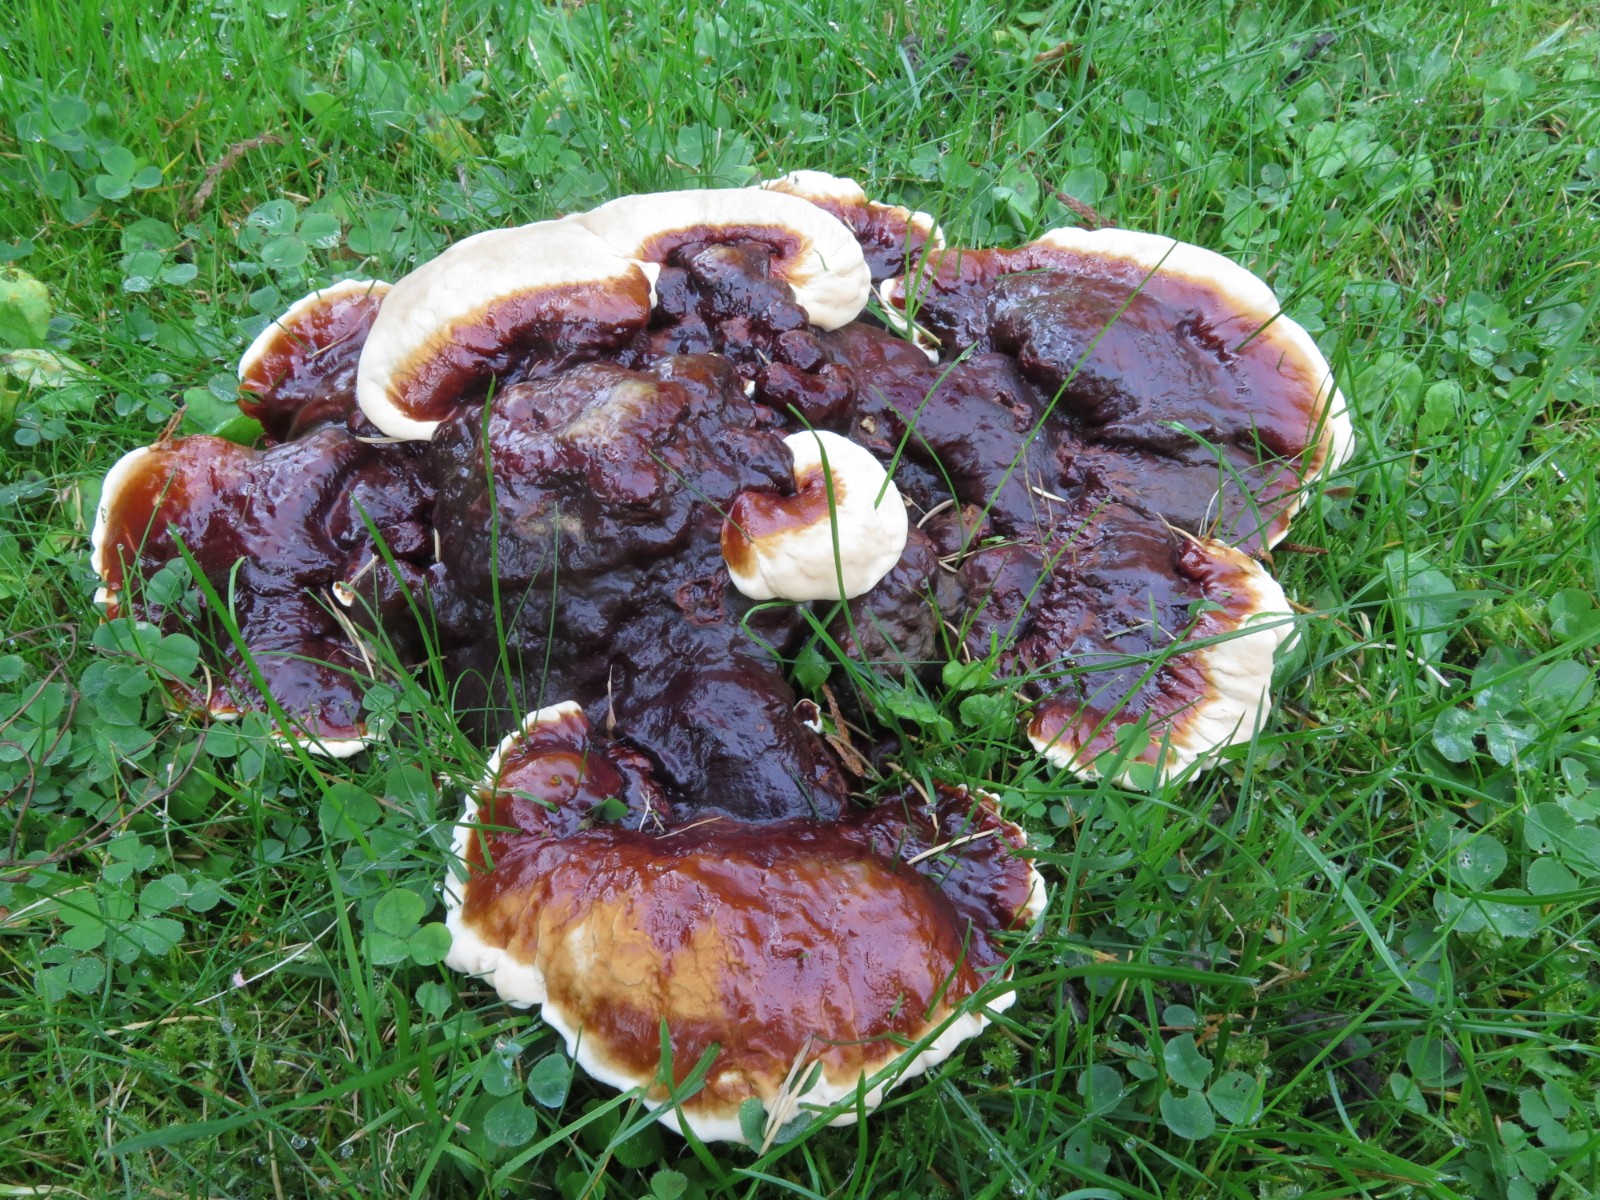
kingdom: Fungi
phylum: Basidiomycota
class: Agaricomycetes
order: Polyporales
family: Polyporaceae
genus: Ganoderma
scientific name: Ganoderma lucidum
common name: skinnende lakporesvamp
